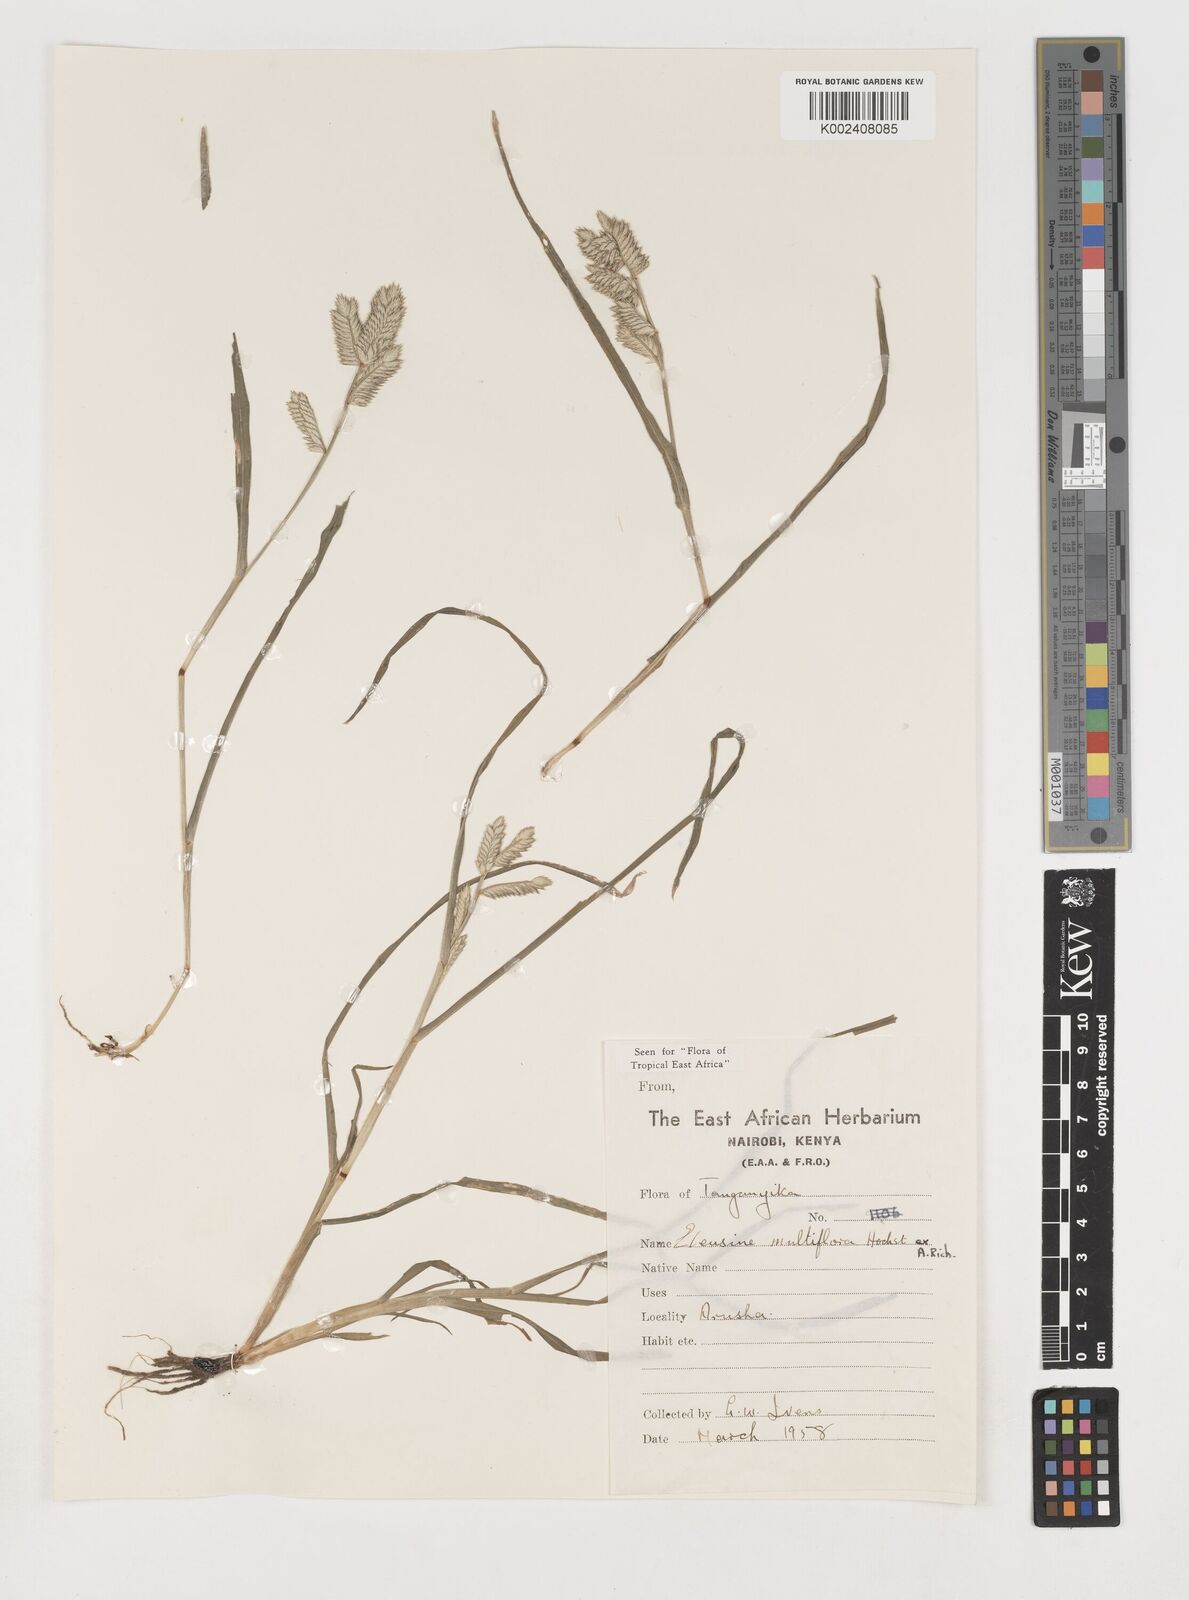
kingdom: Plantae
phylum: Tracheophyta
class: Liliopsida
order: Poales
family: Poaceae
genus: Eleusine
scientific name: Eleusine multiflora
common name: Fat-spiked yard-grass
